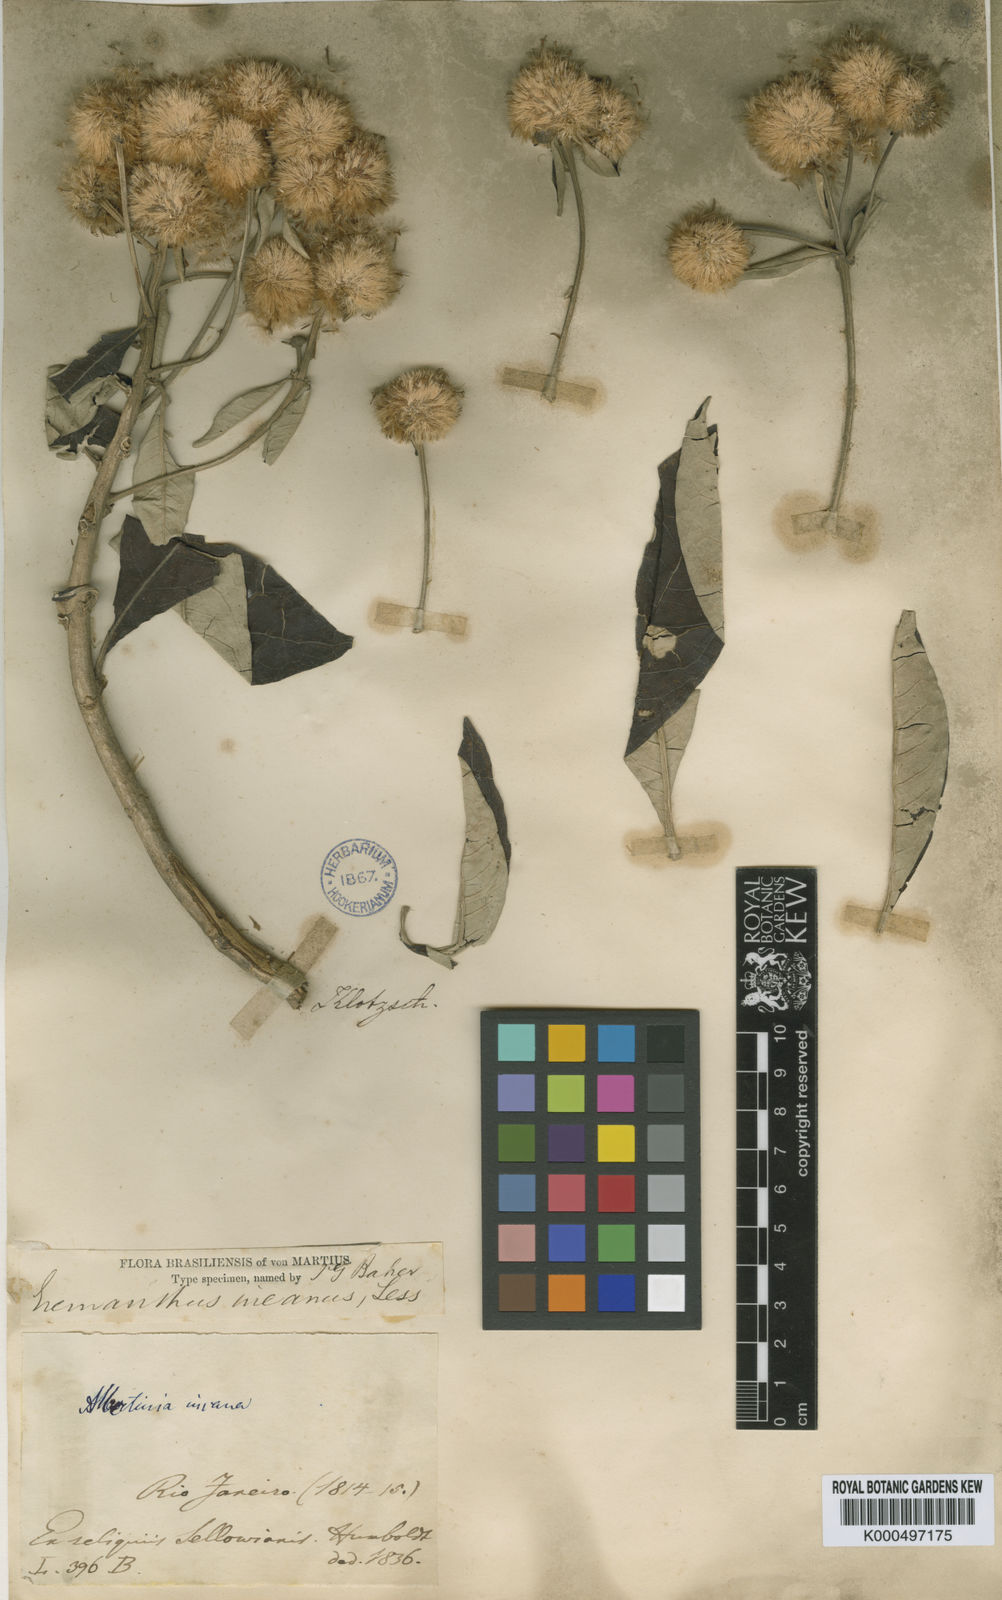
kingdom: Plantae
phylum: Tracheophyta
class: Magnoliopsida
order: Asterales
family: Asteraceae
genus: Eremanthus
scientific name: Eremanthus incanus
